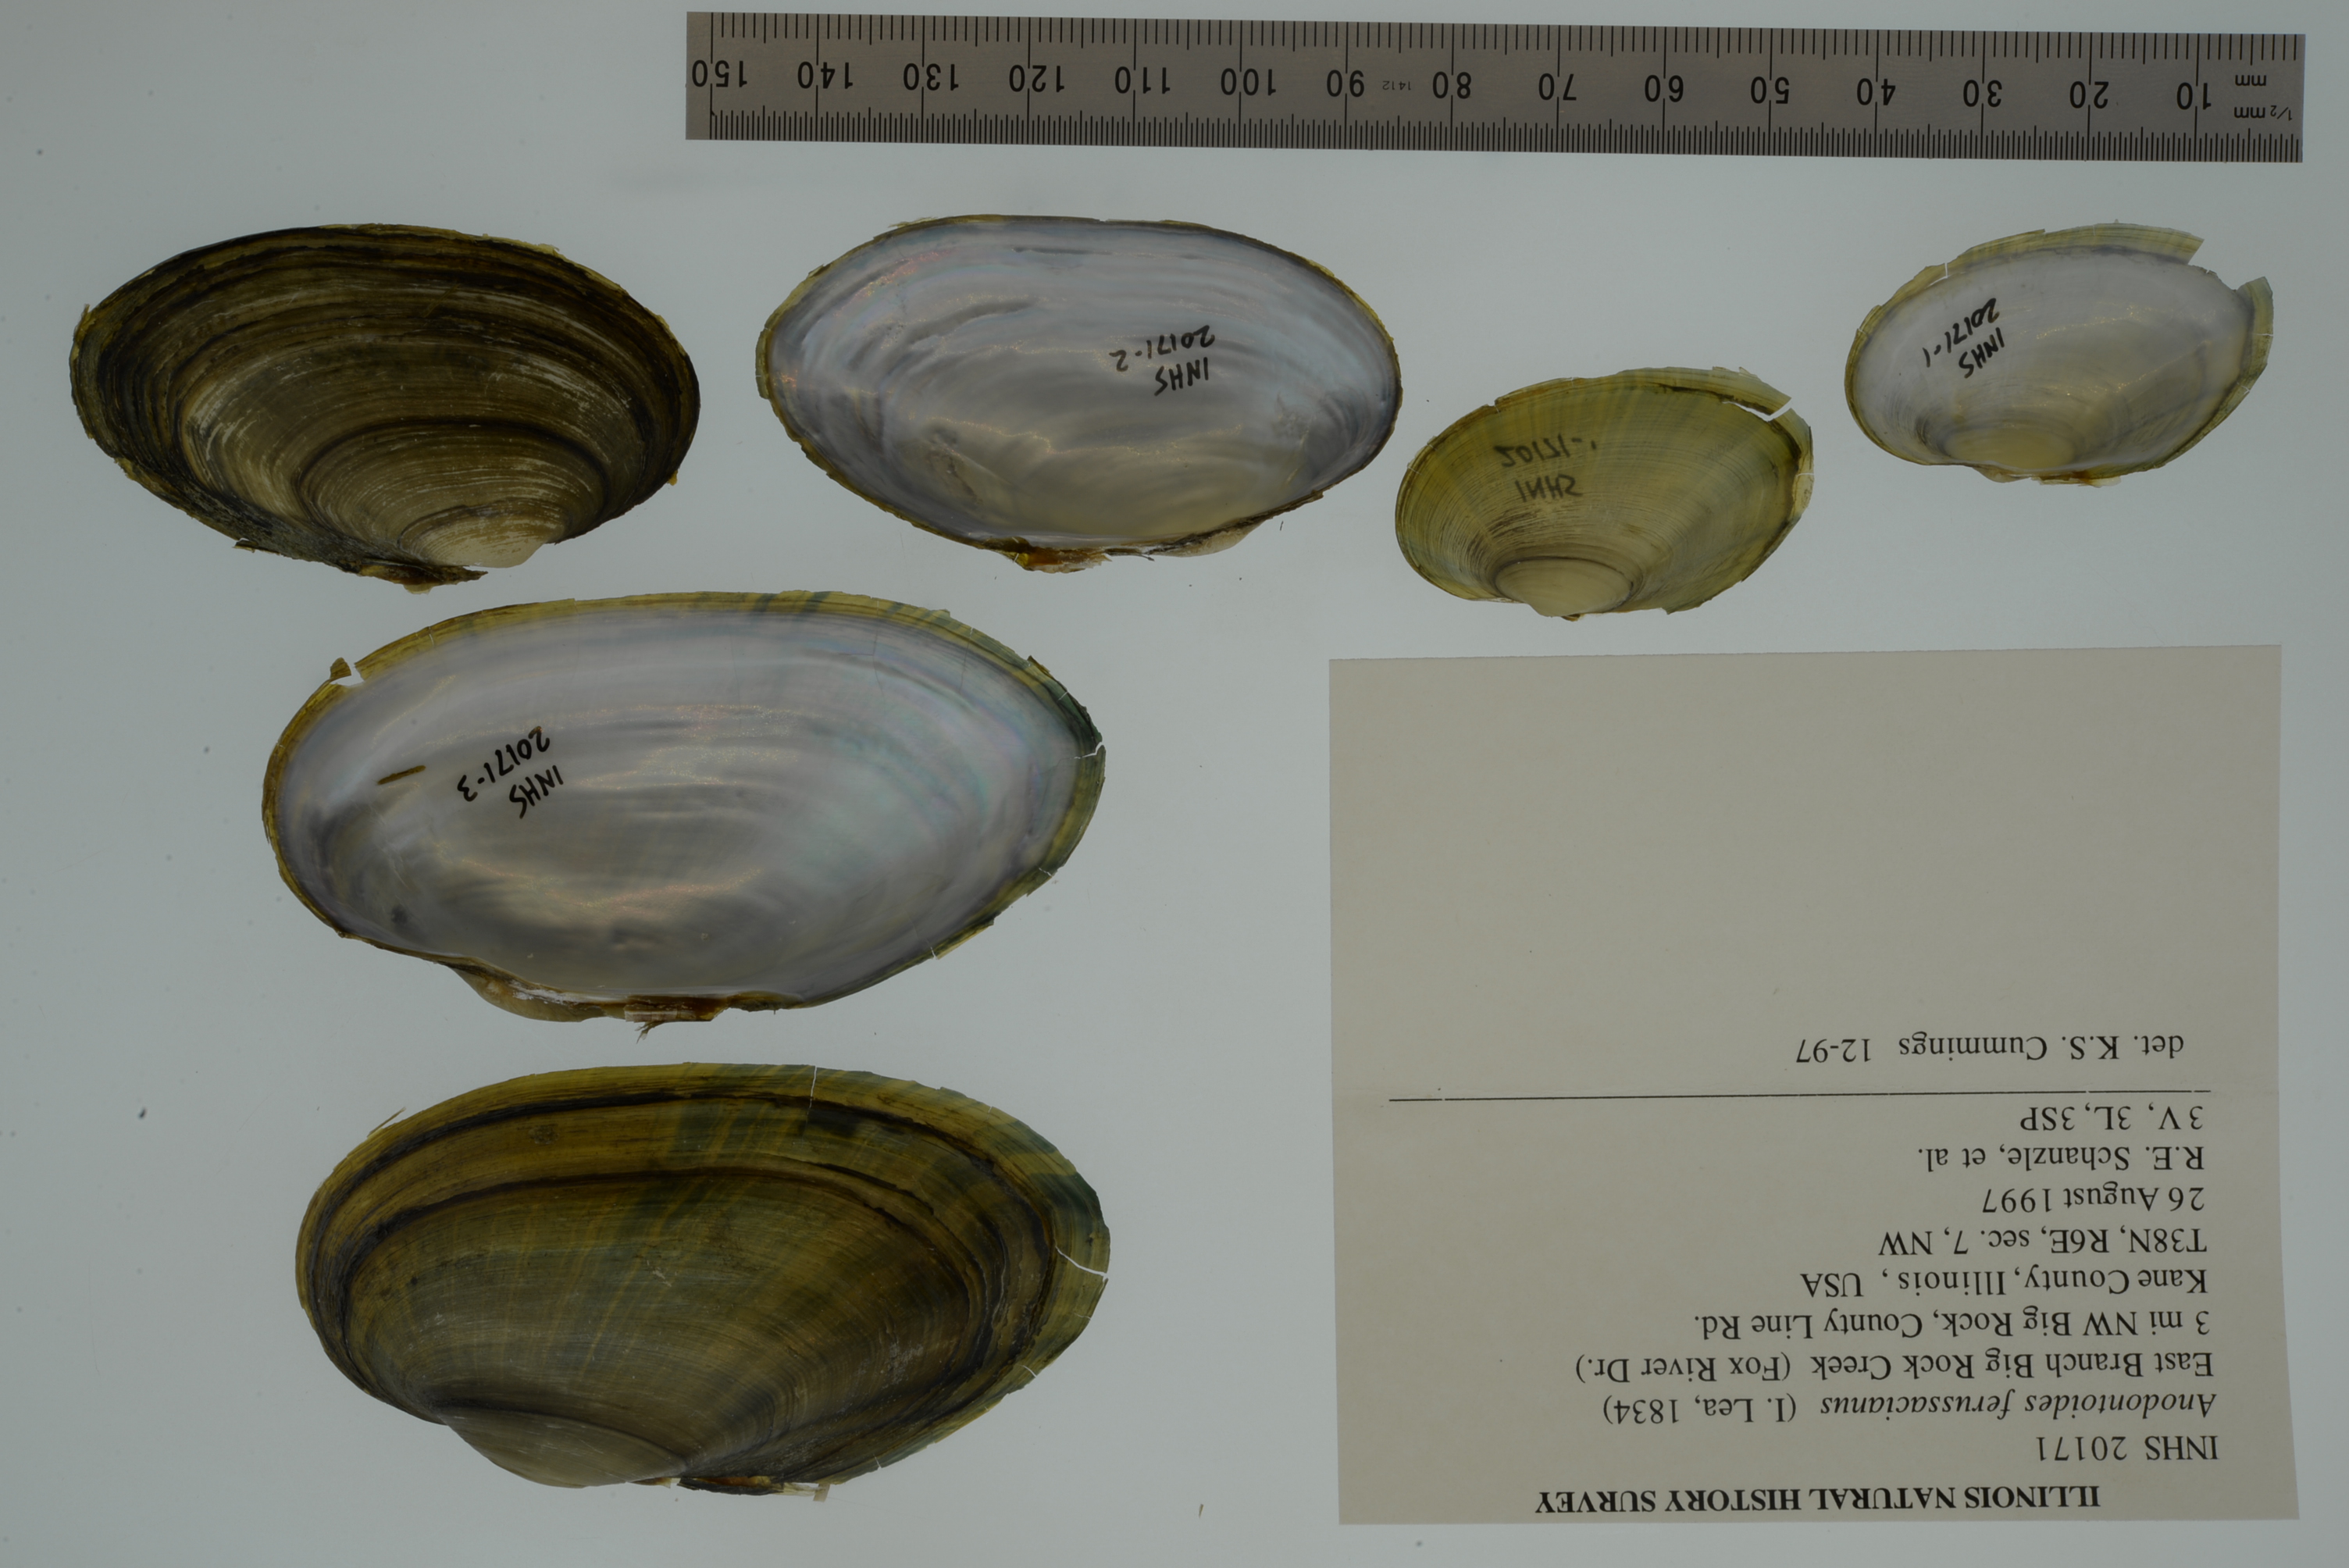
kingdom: Animalia
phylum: Mollusca
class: Bivalvia
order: Unionida
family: Unionidae
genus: Anodontoides
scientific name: Anodontoides ferussacianus
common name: Cylindrical papershell
